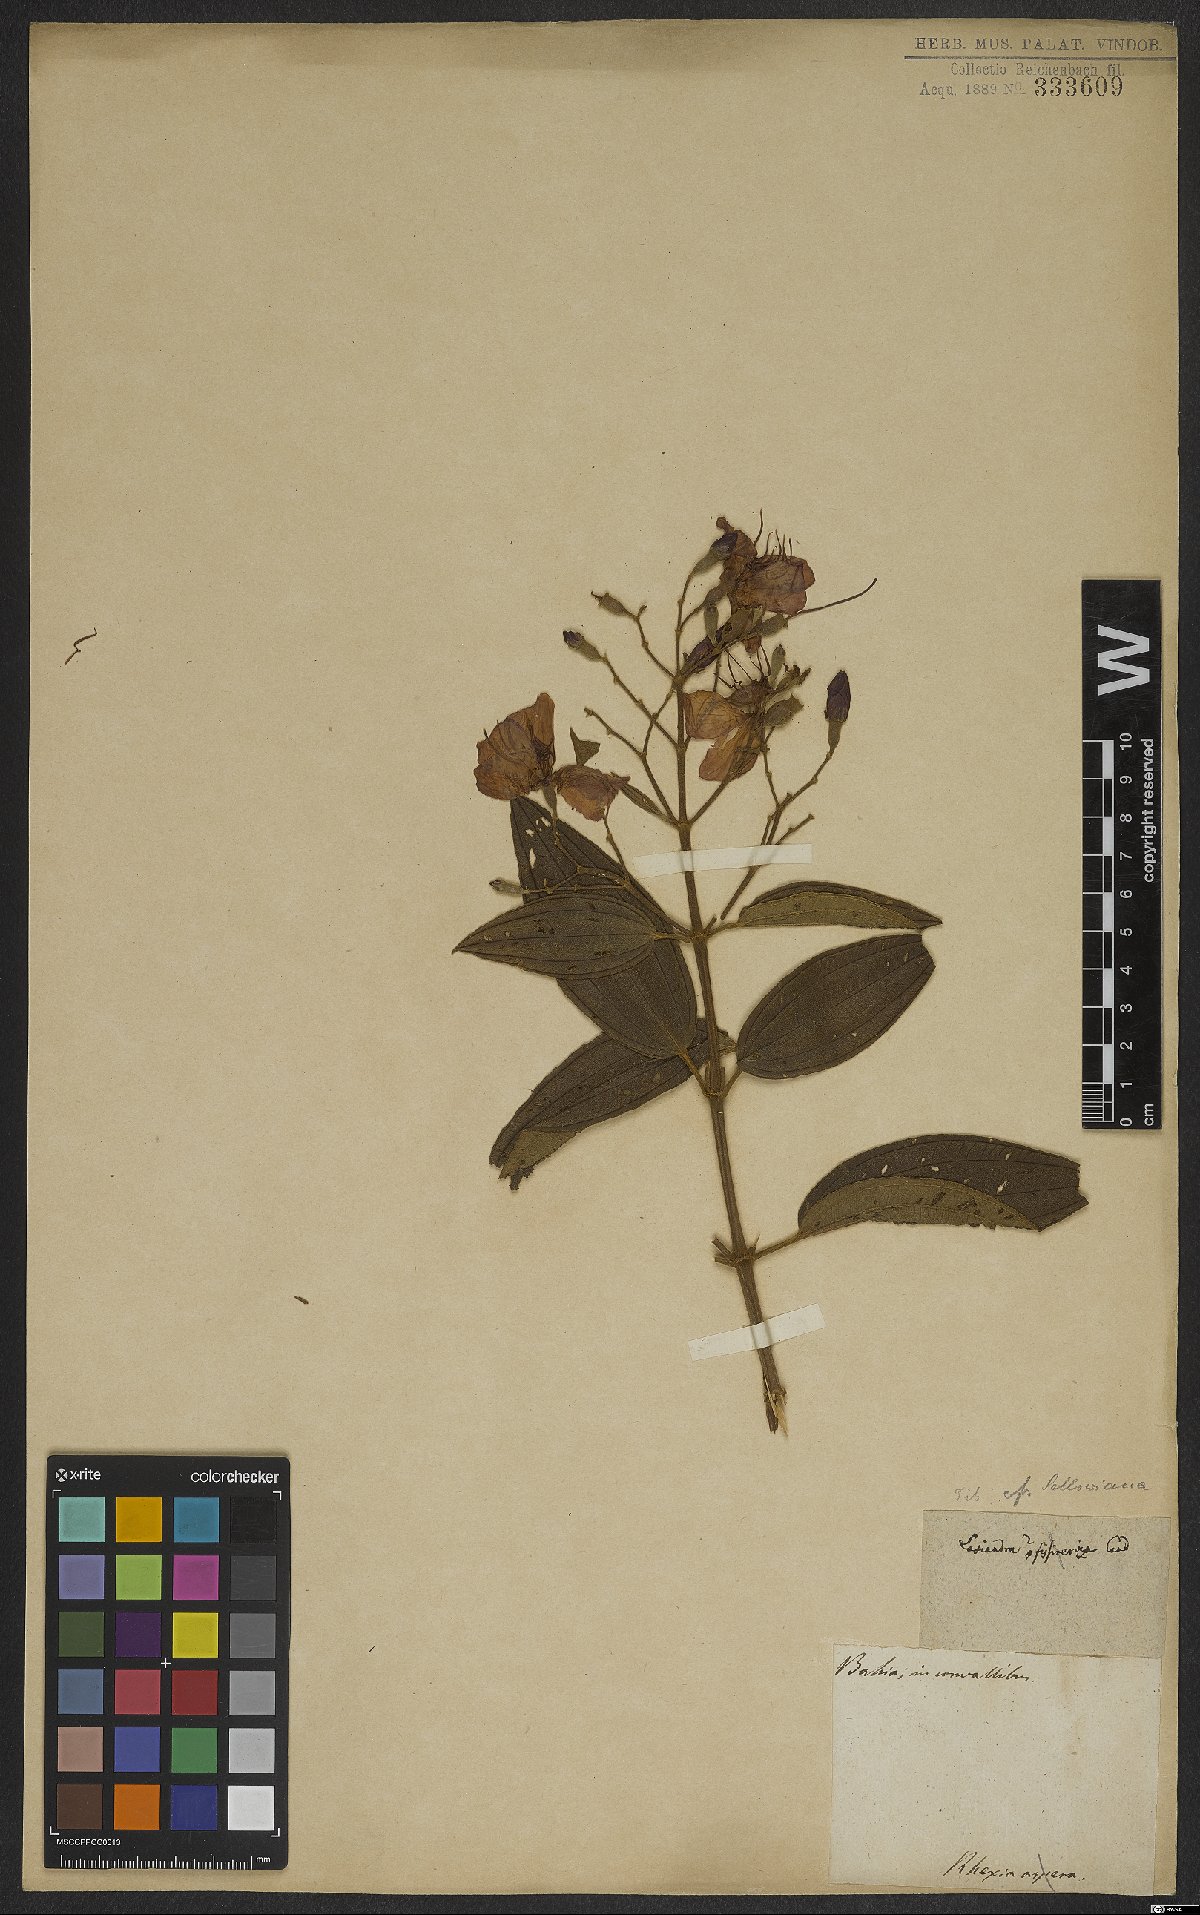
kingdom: Plantae
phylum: Tracheophyta
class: Magnoliopsida
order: Myrtales
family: Melastomataceae
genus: Pleroma
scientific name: Pleroma sellowianum
